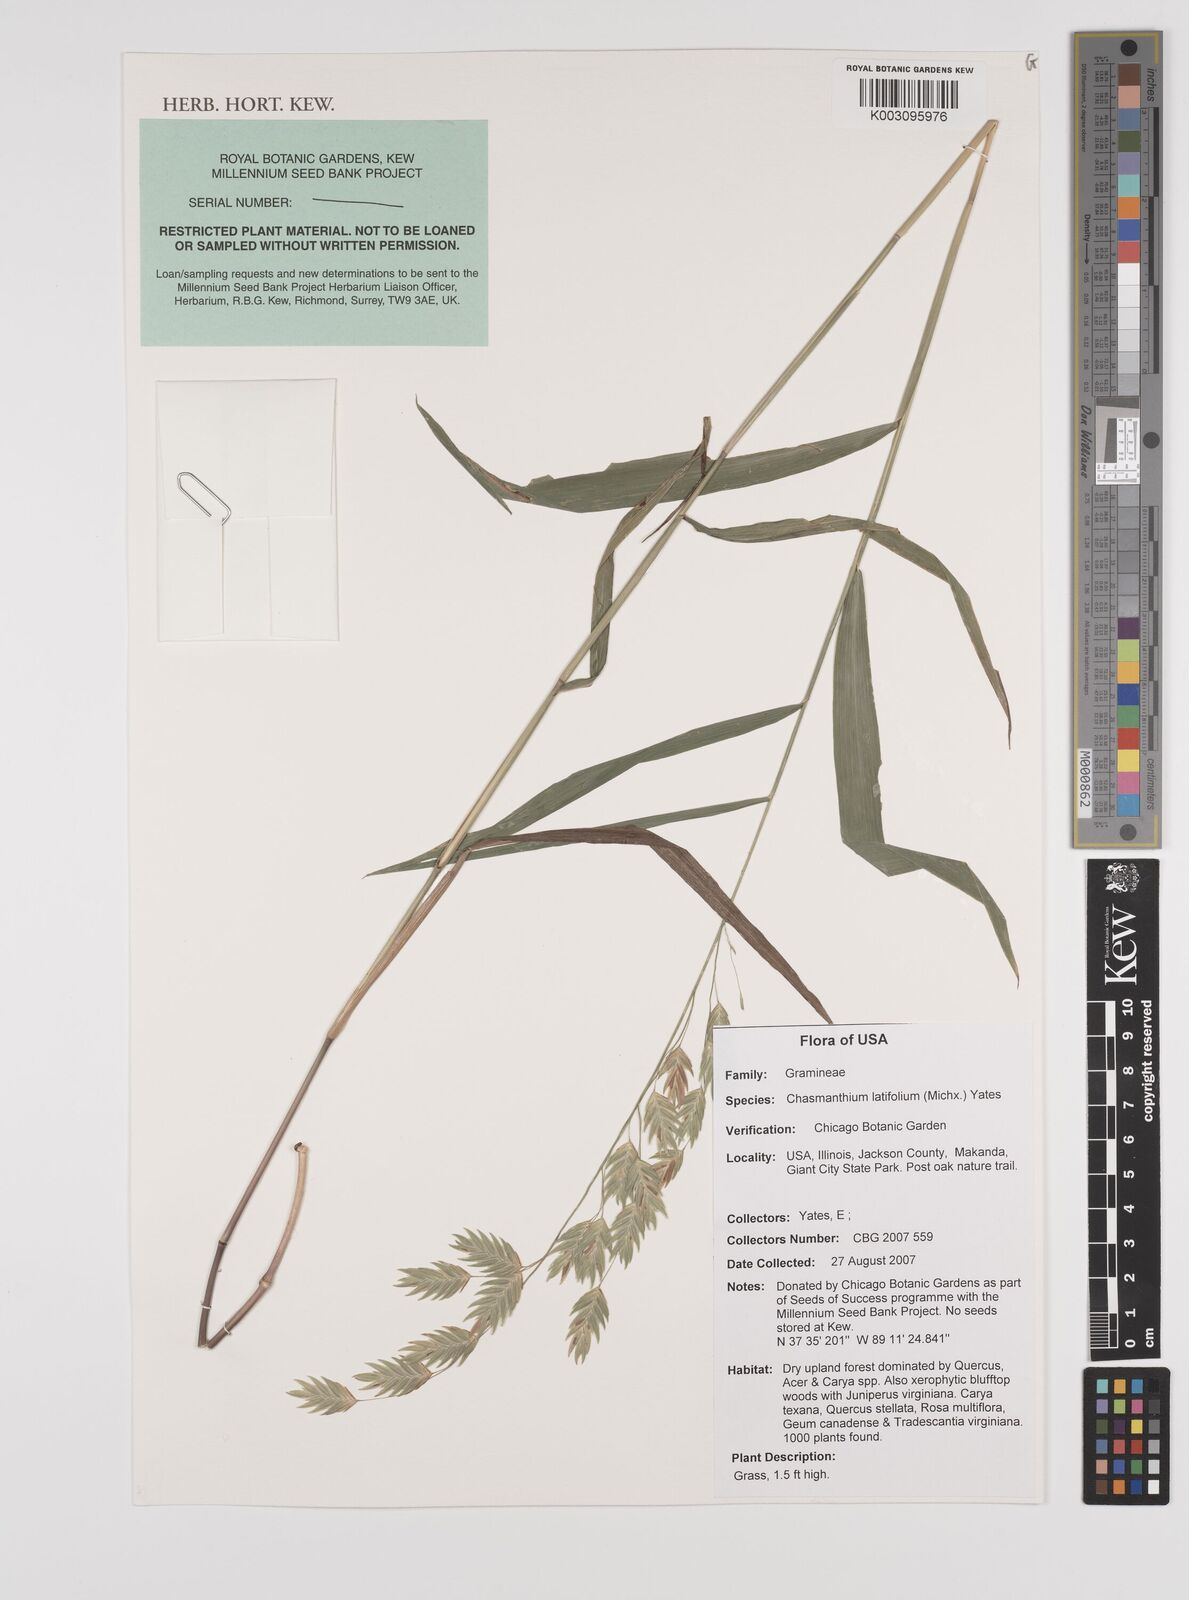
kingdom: Plantae
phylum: Tracheophyta
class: Liliopsida
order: Poales
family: Poaceae
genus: Chasmanthium
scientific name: Chasmanthium latifolium
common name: Broad-leaved chasmanthium
